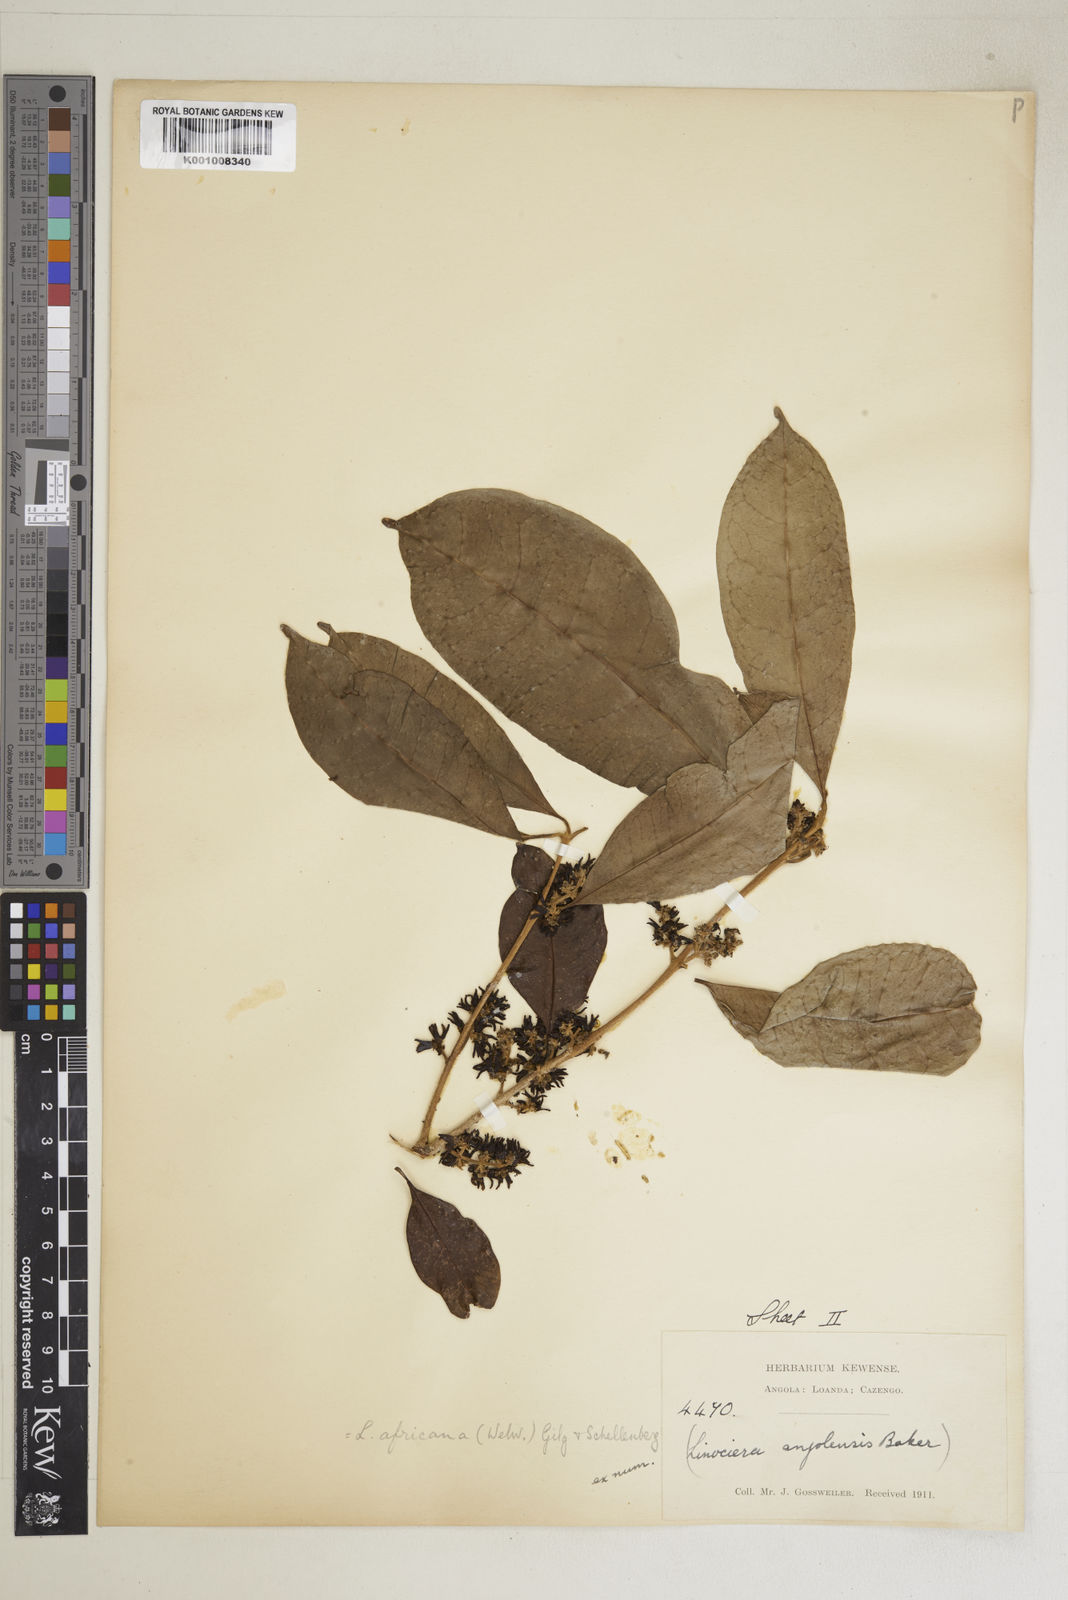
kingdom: Plantae
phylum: Tracheophyta
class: Magnoliopsida
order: Lamiales
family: Oleaceae
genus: Chionanthus
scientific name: Chionanthus
